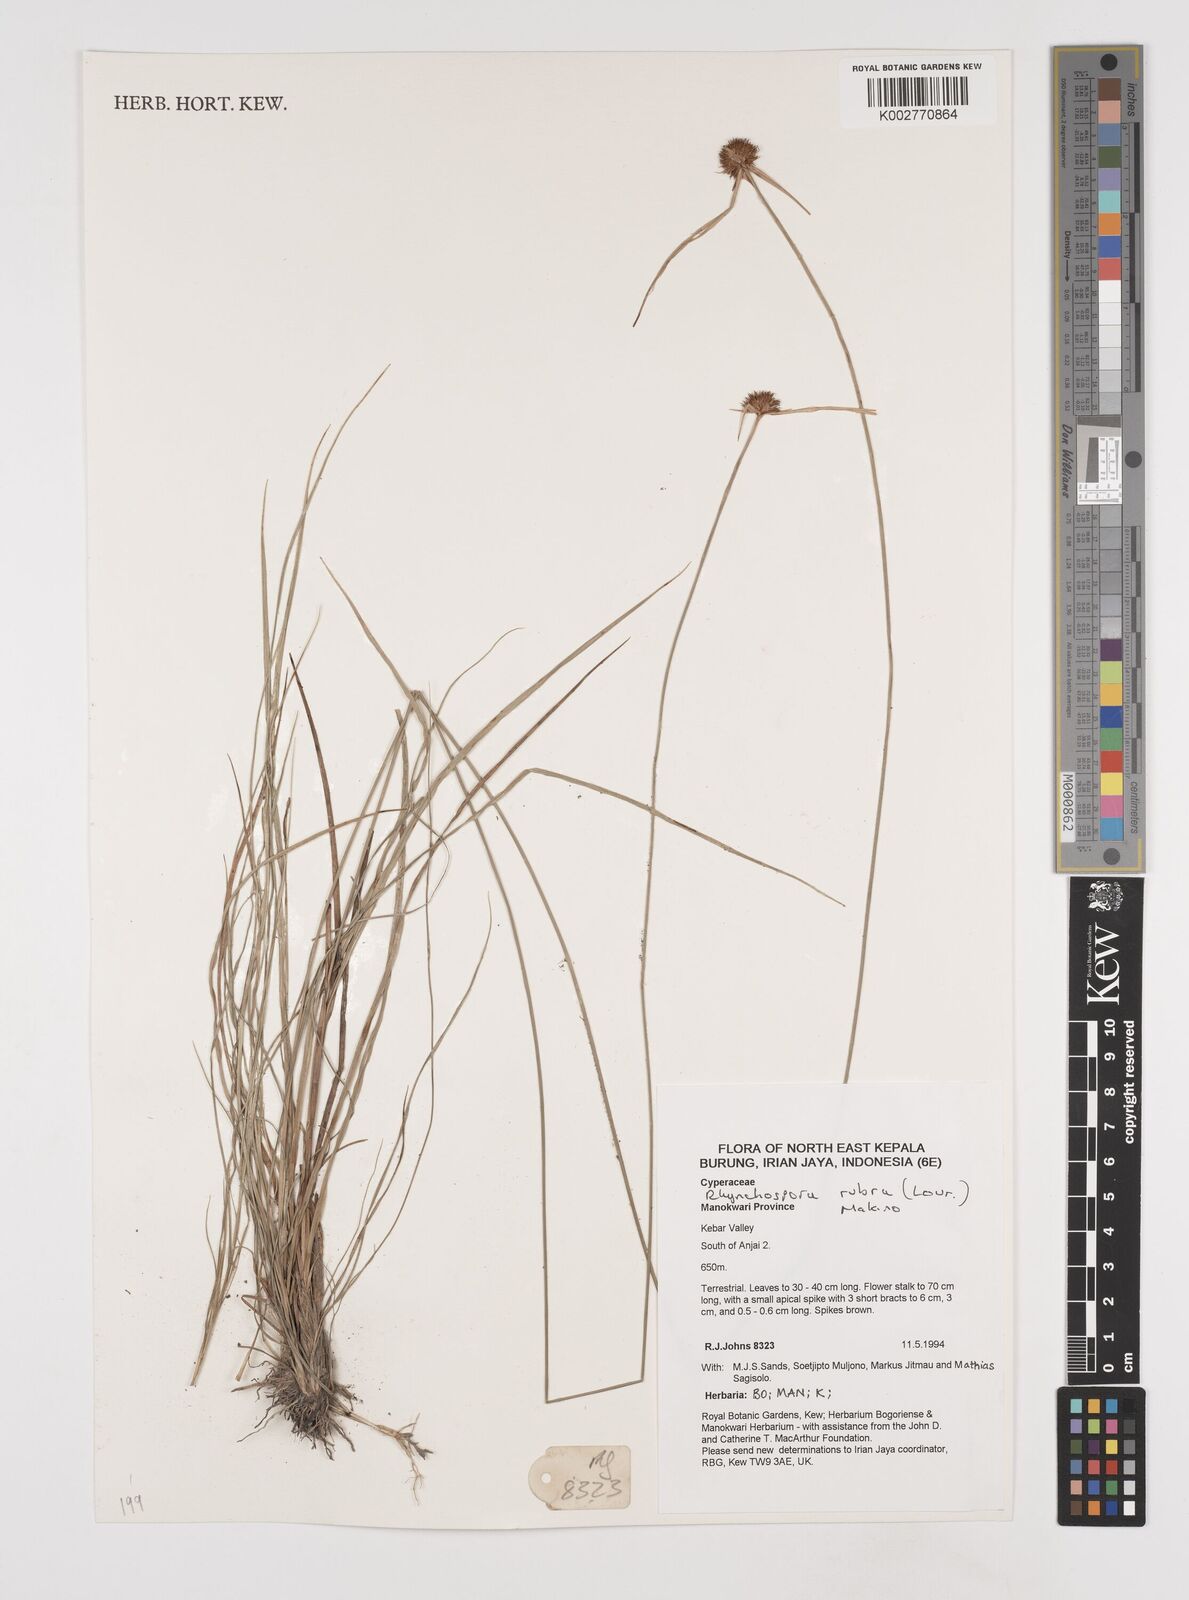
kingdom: Plantae
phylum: Tracheophyta
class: Liliopsida
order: Poales
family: Cyperaceae
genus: Rhynchospora
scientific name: Rhynchospora rubra
